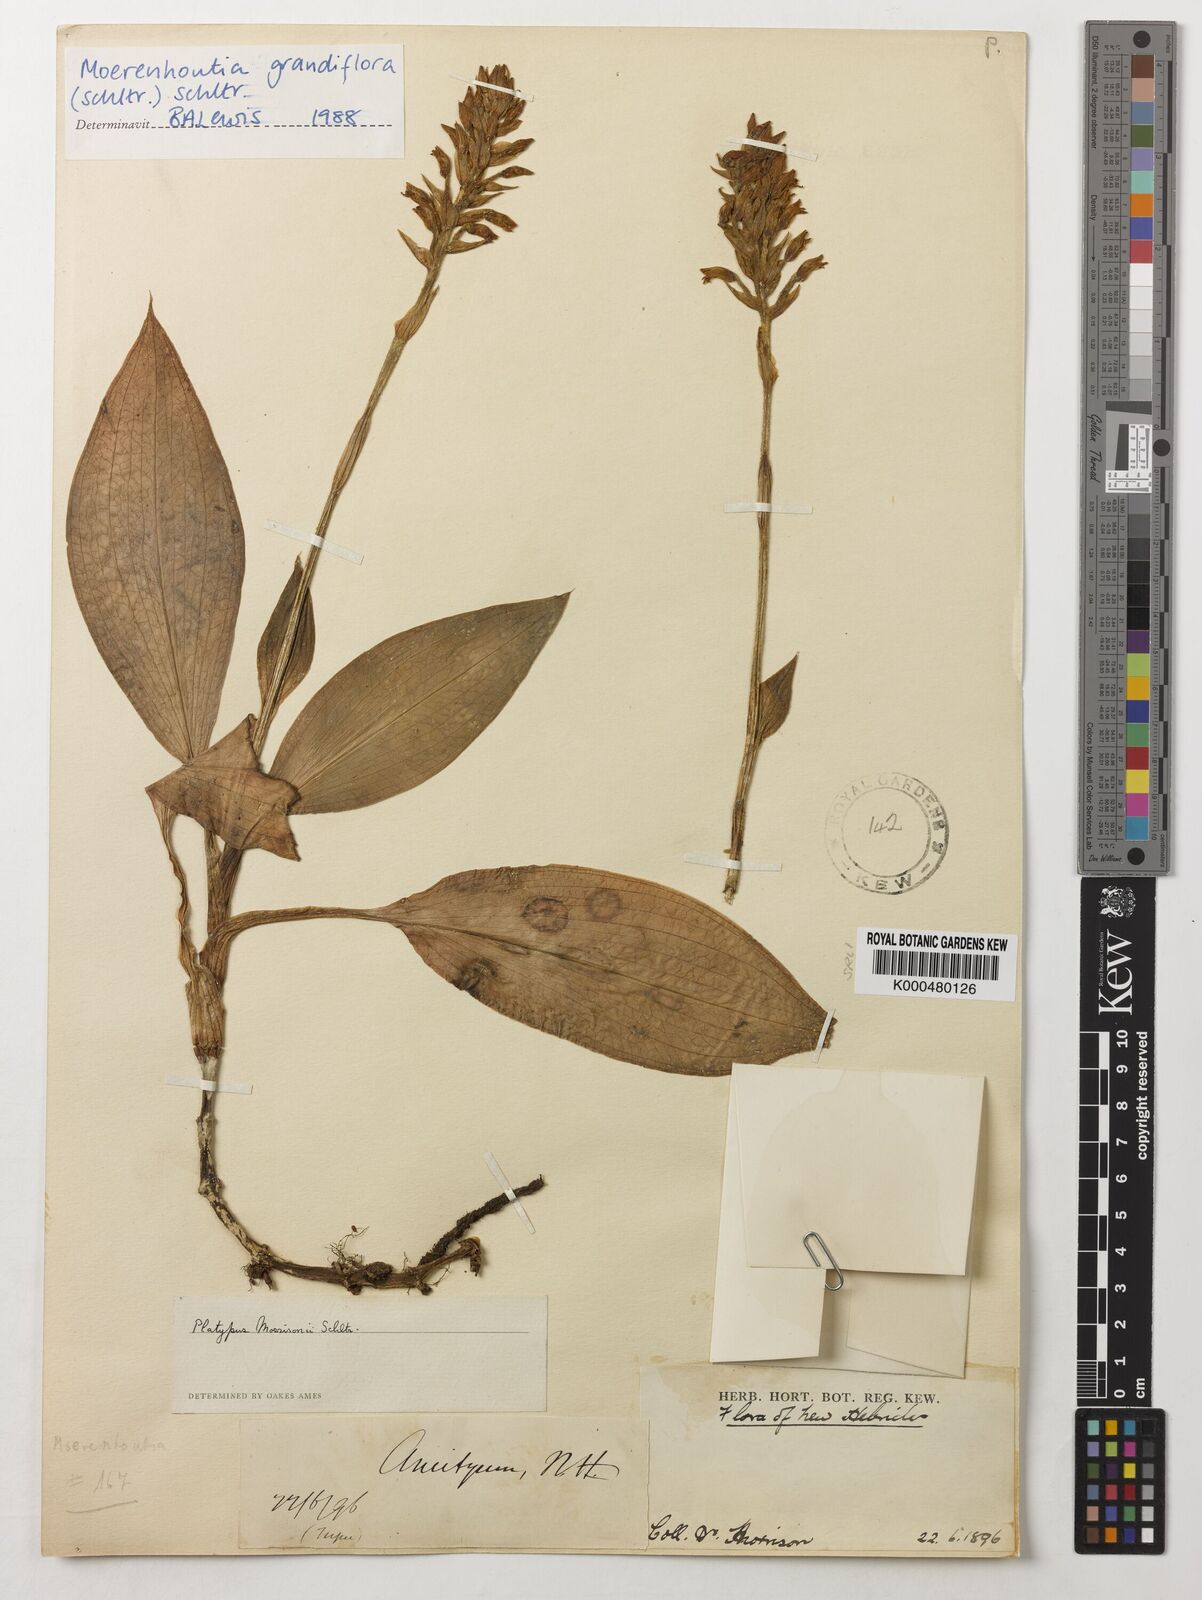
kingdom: Plantae
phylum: Tracheophyta
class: Liliopsida
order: Asparagales
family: Orchidaceae
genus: Platylepis
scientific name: Platylepis grandiflora
